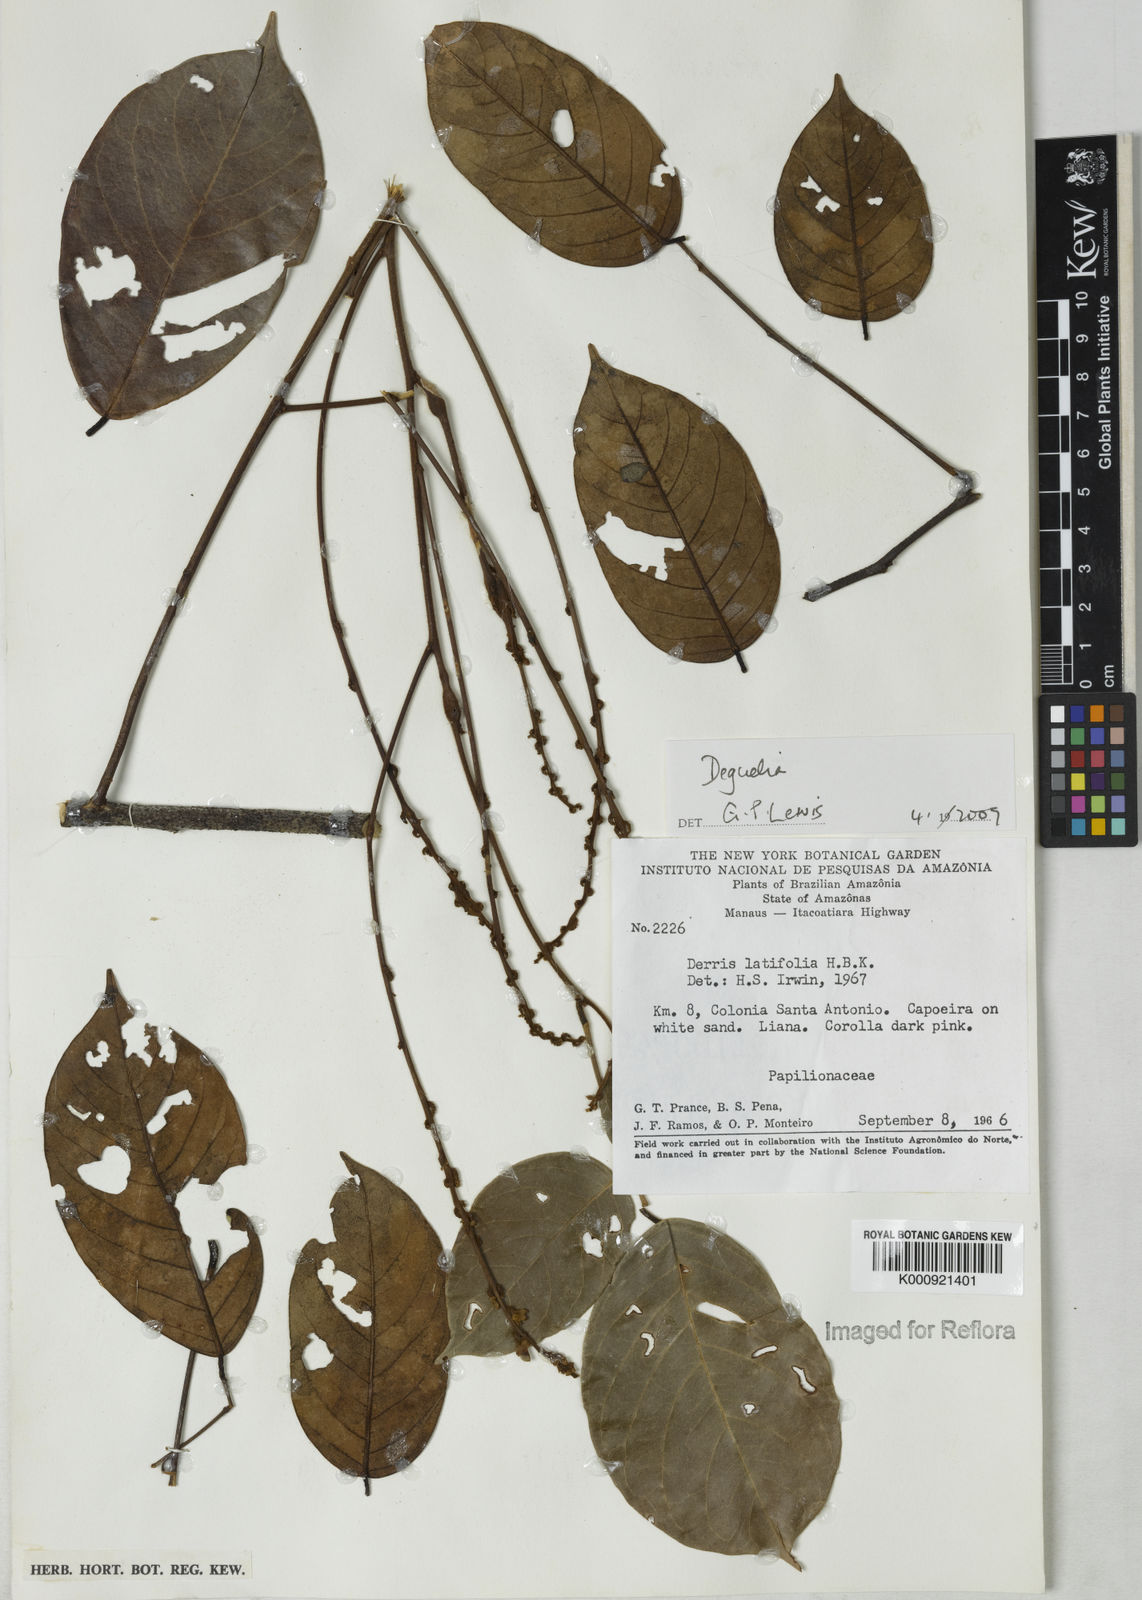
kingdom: Plantae
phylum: Tracheophyta
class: Magnoliopsida
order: Fabales
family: Fabaceae
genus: Deguelia
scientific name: Deguelia
